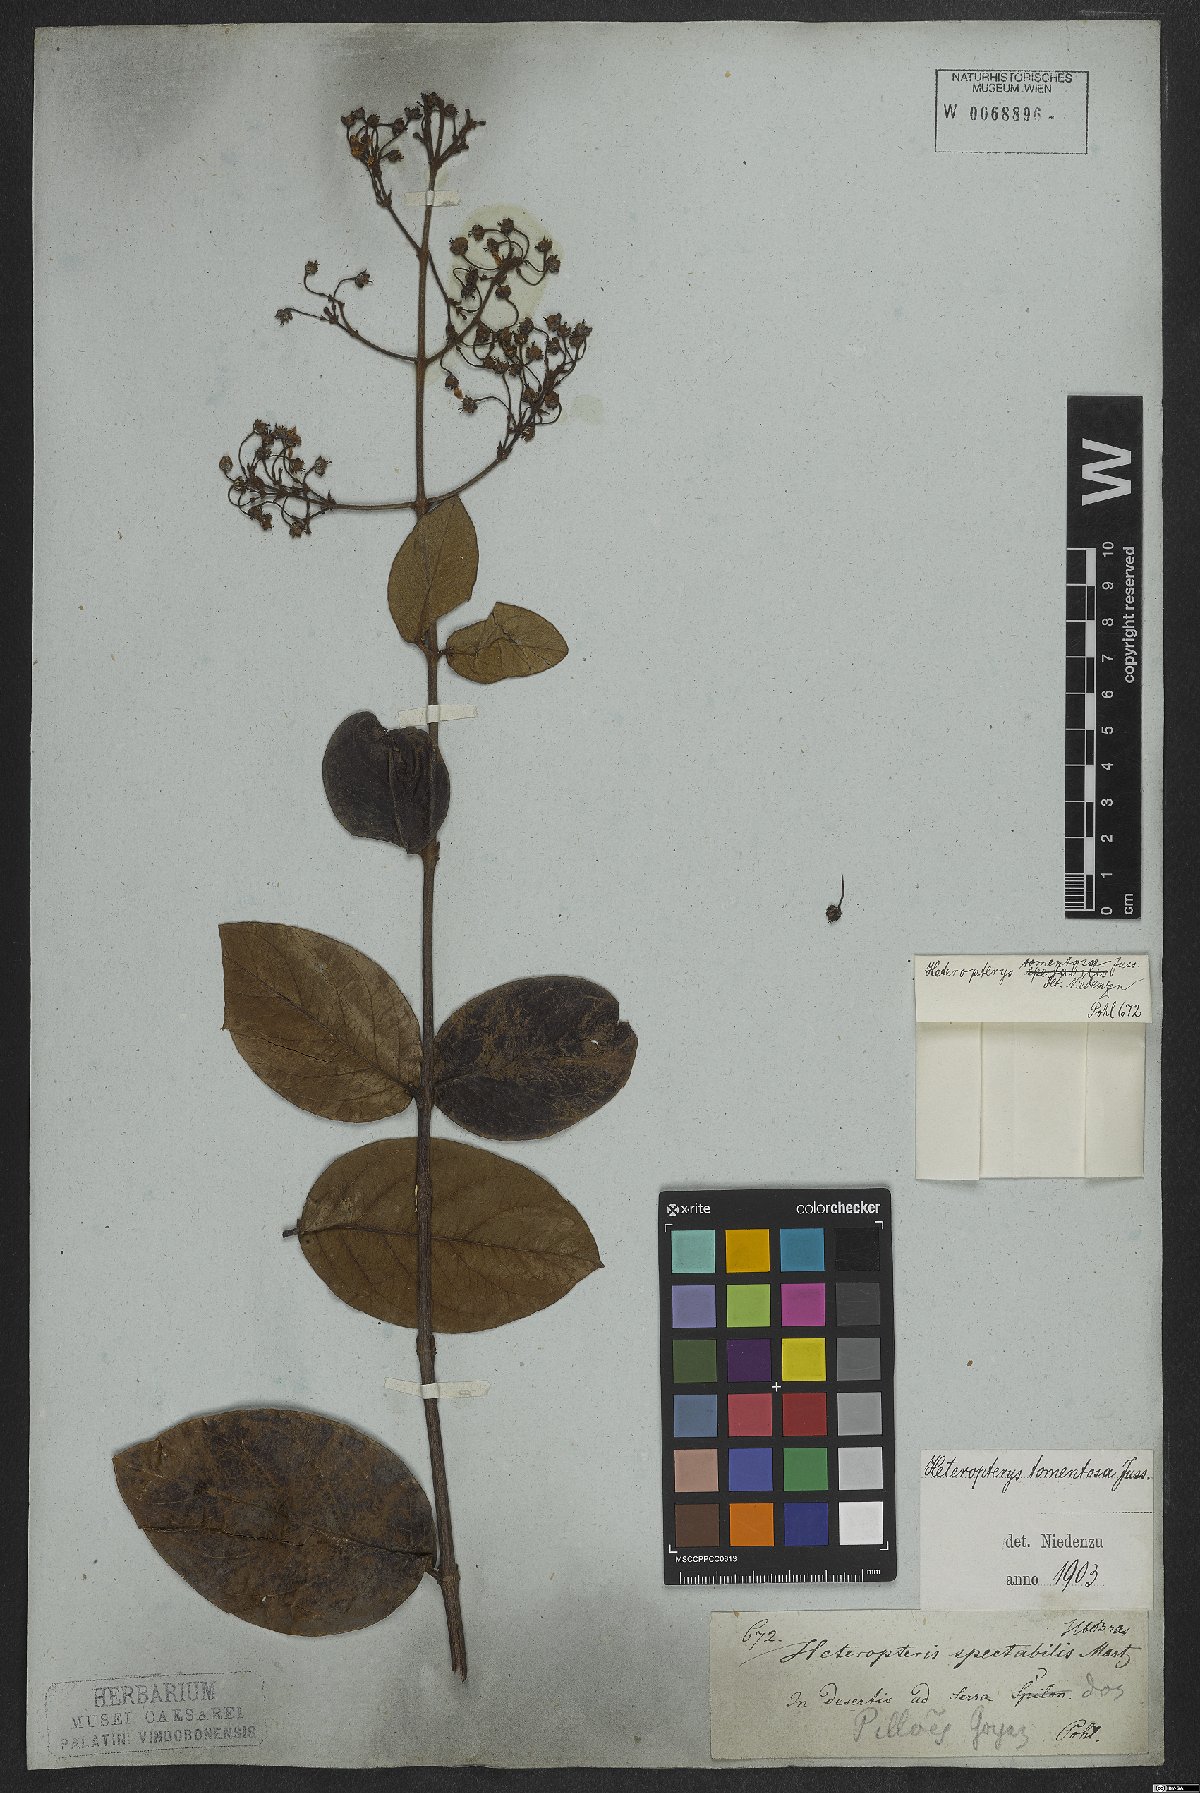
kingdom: Plantae
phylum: Tracheophyta
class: Magnoliopsida
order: Malpighiales
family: Malpighiaceae
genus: Heteropterys
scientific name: Heteropterys tomentosa
